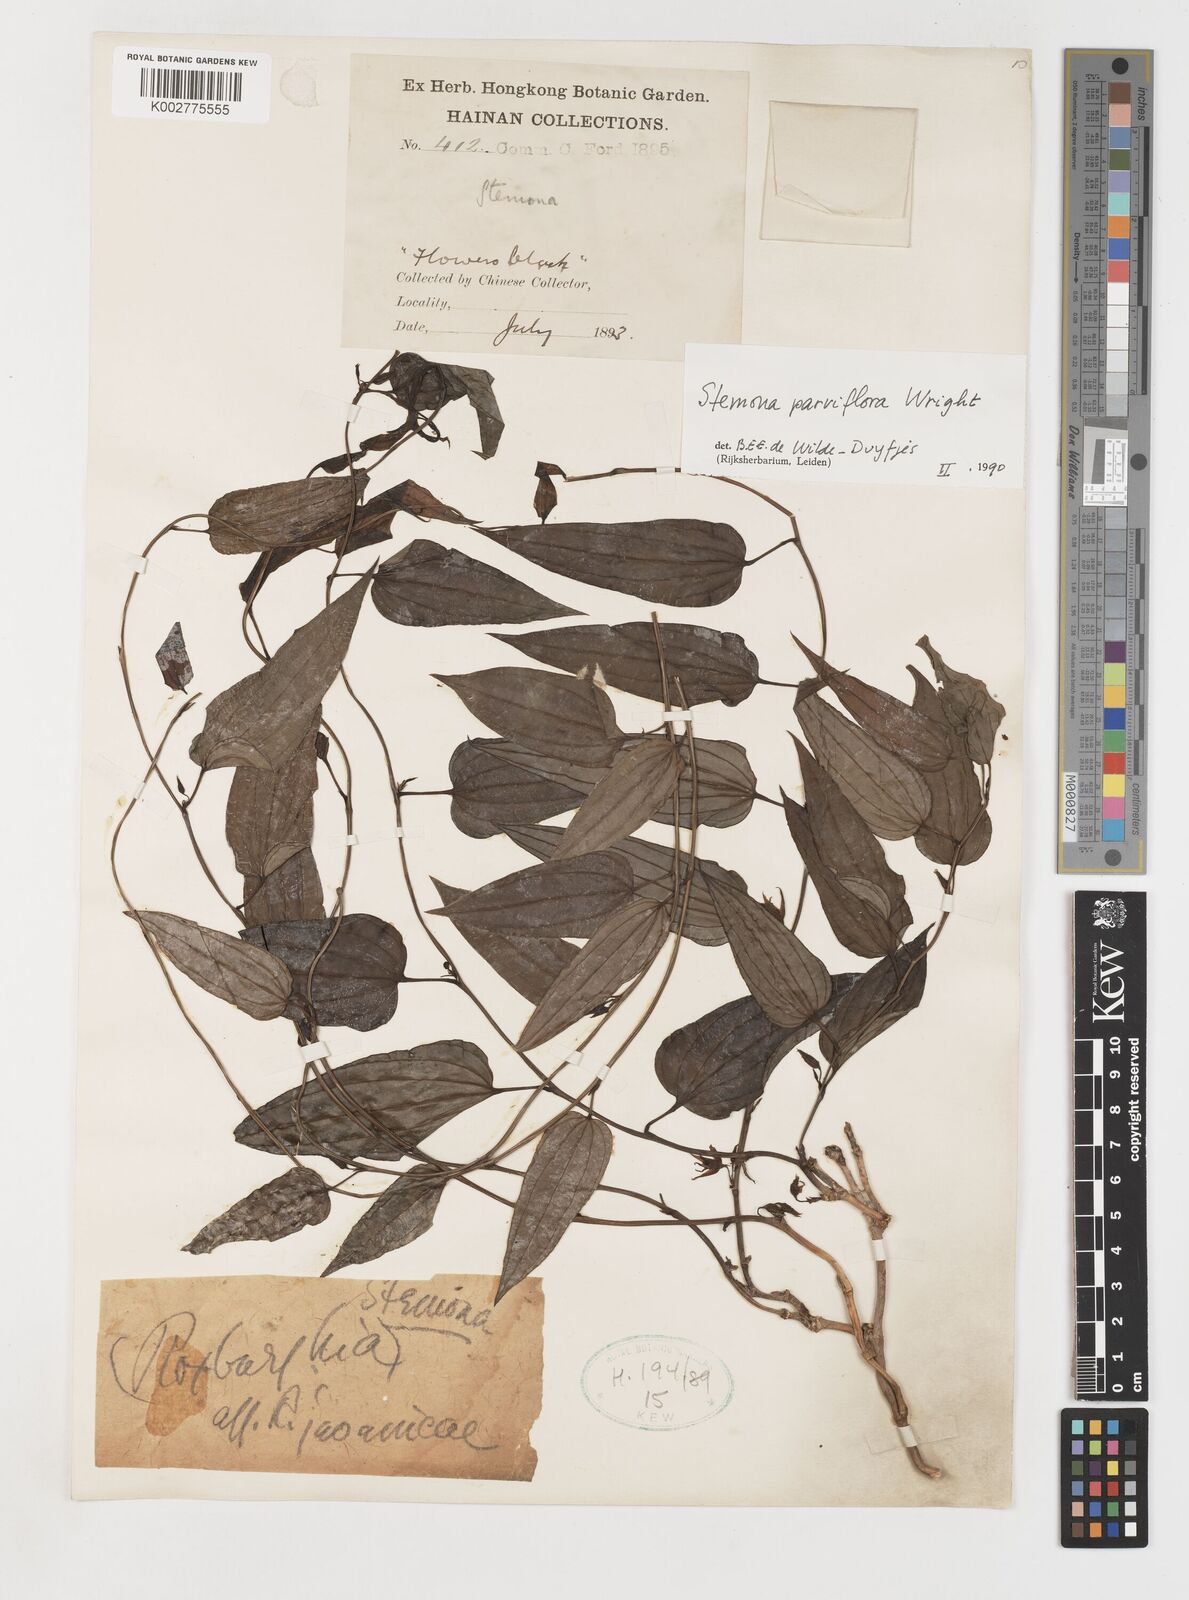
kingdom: Plantae
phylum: Tracheophyta
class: Liliopsida
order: Pandanales
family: Stemonaceae
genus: Stemona
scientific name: Stemona parviflora
